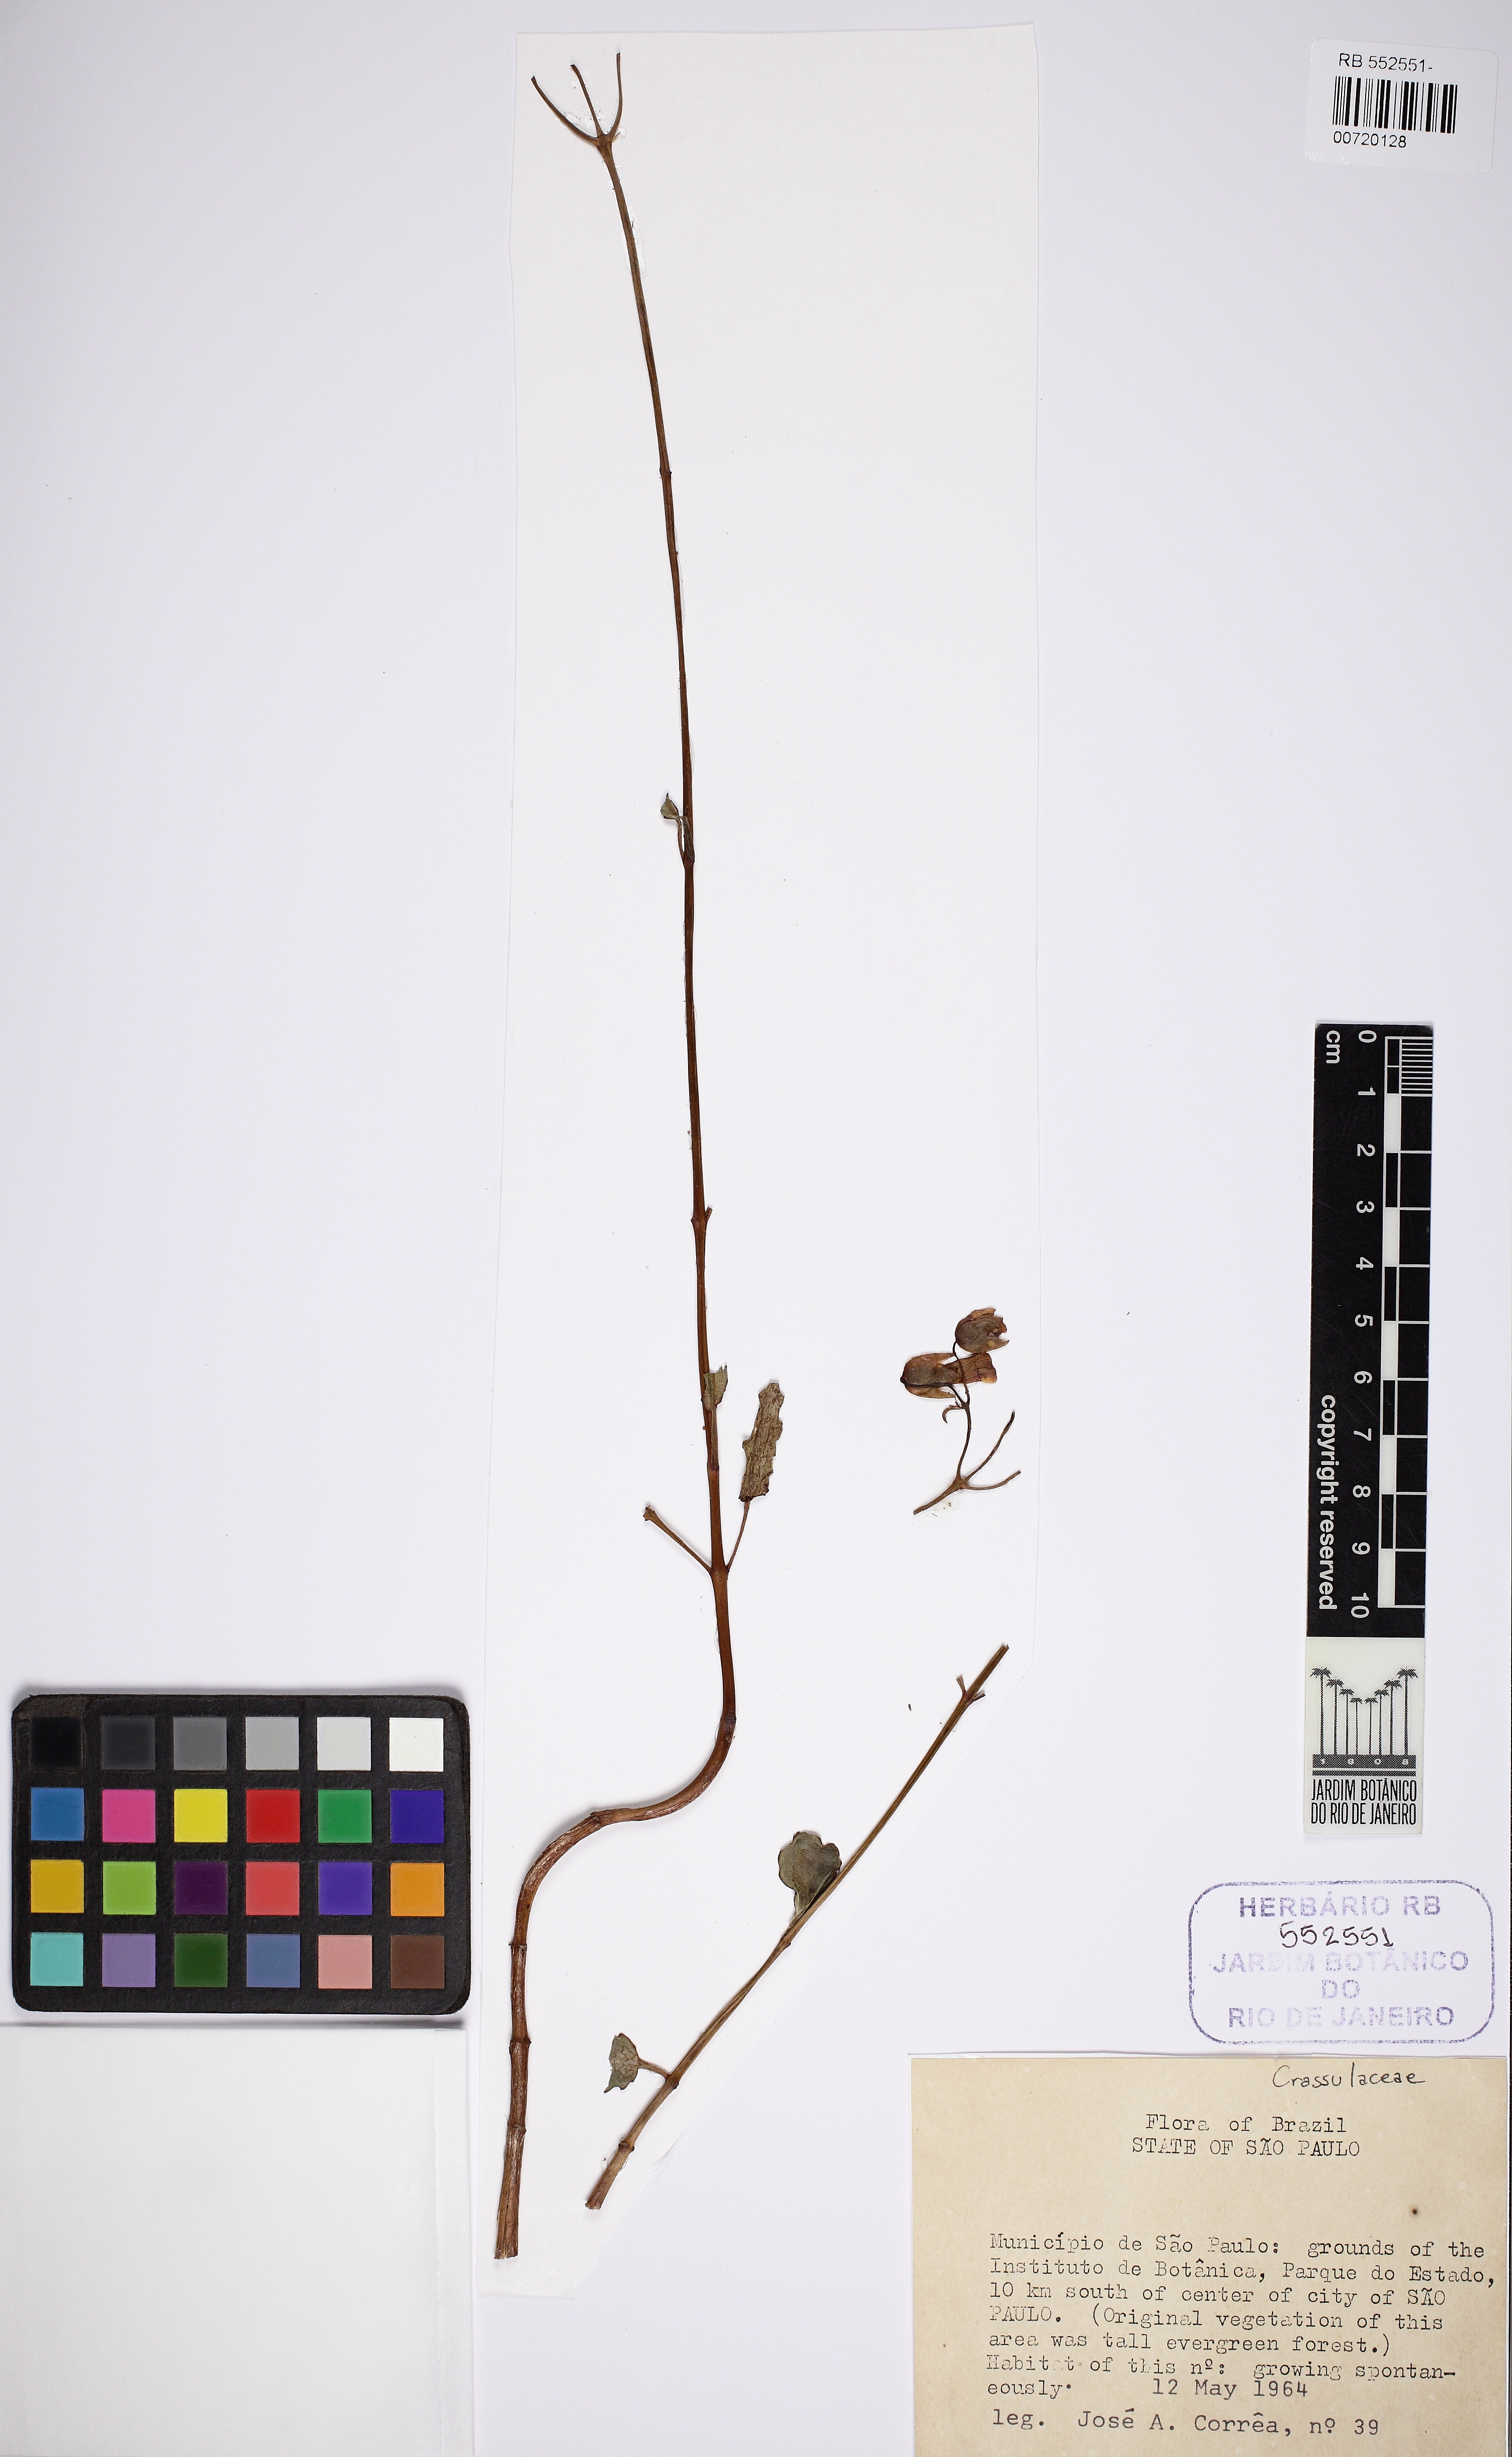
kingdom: Plantae
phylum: Tracheophyta
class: Magnoliopsida
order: Saxifragales
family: Crassulaceae
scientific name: Crassulaceae
